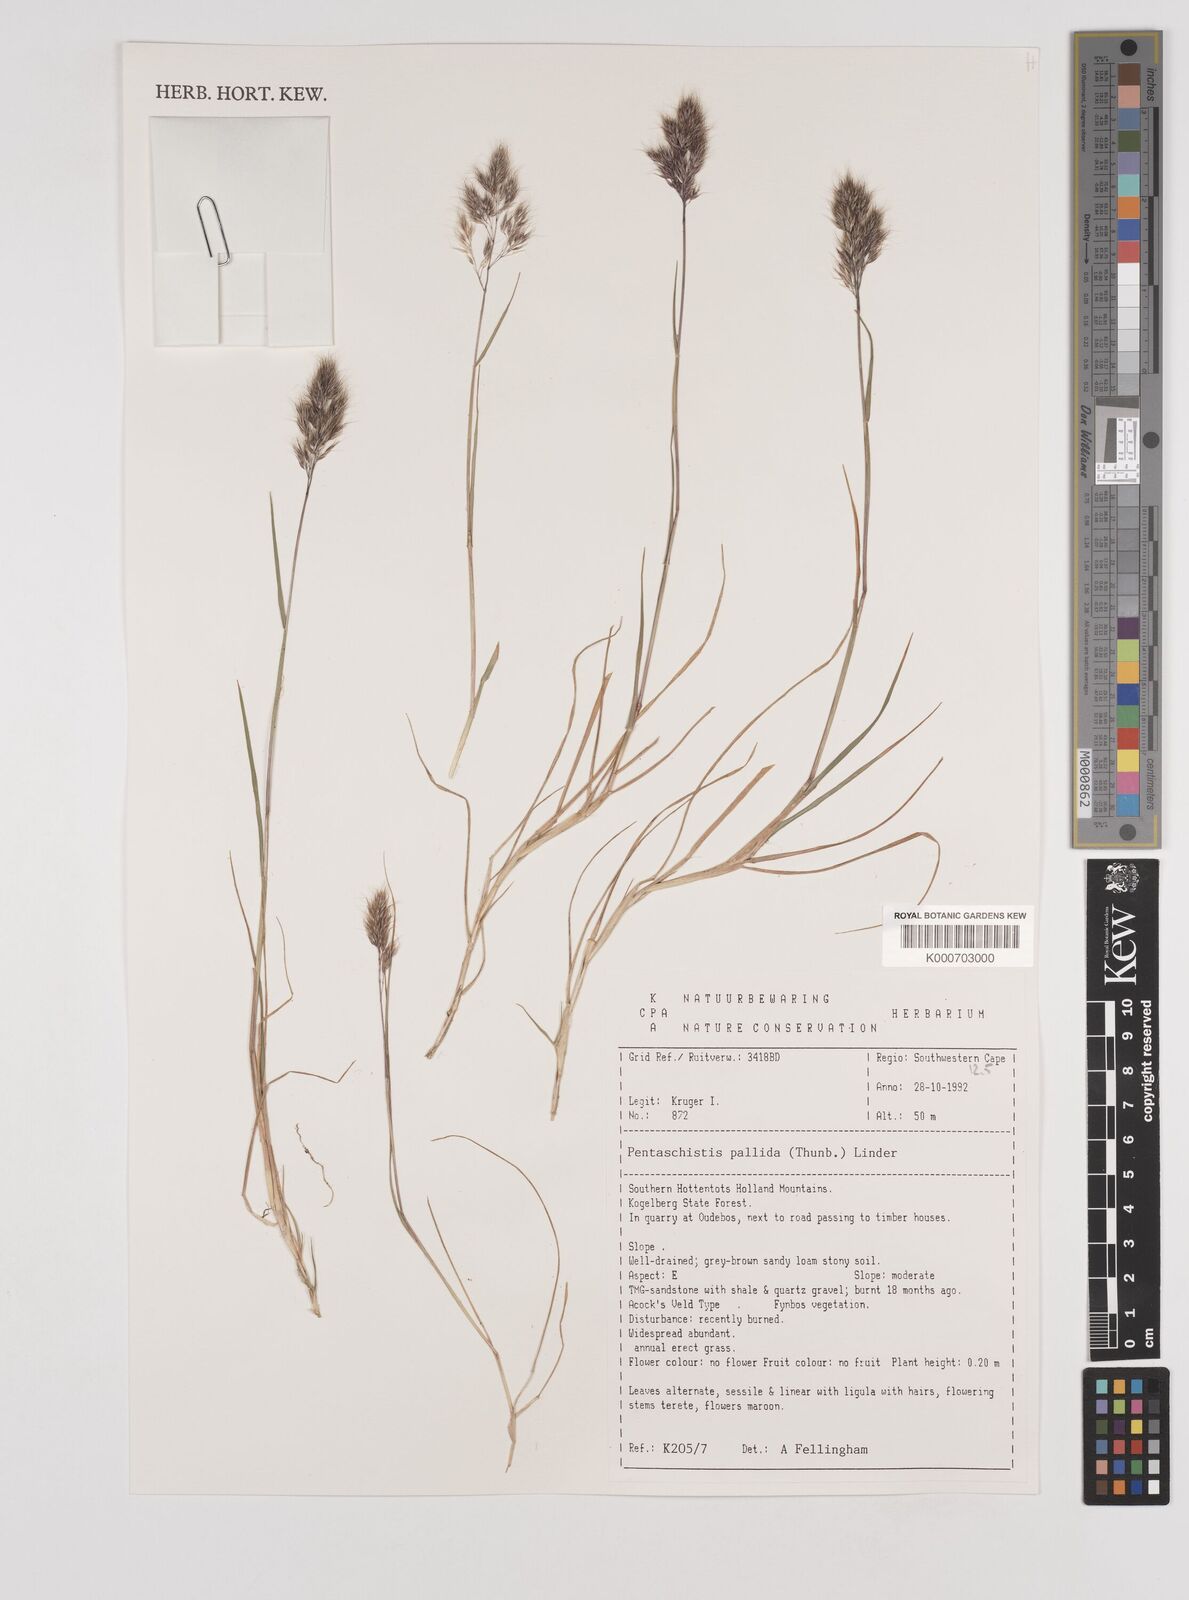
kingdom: Plantae
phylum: Tracheophyta
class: Liliopsida
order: Poales
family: Poaceae
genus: Pentameris
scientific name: Pentameris pallida
